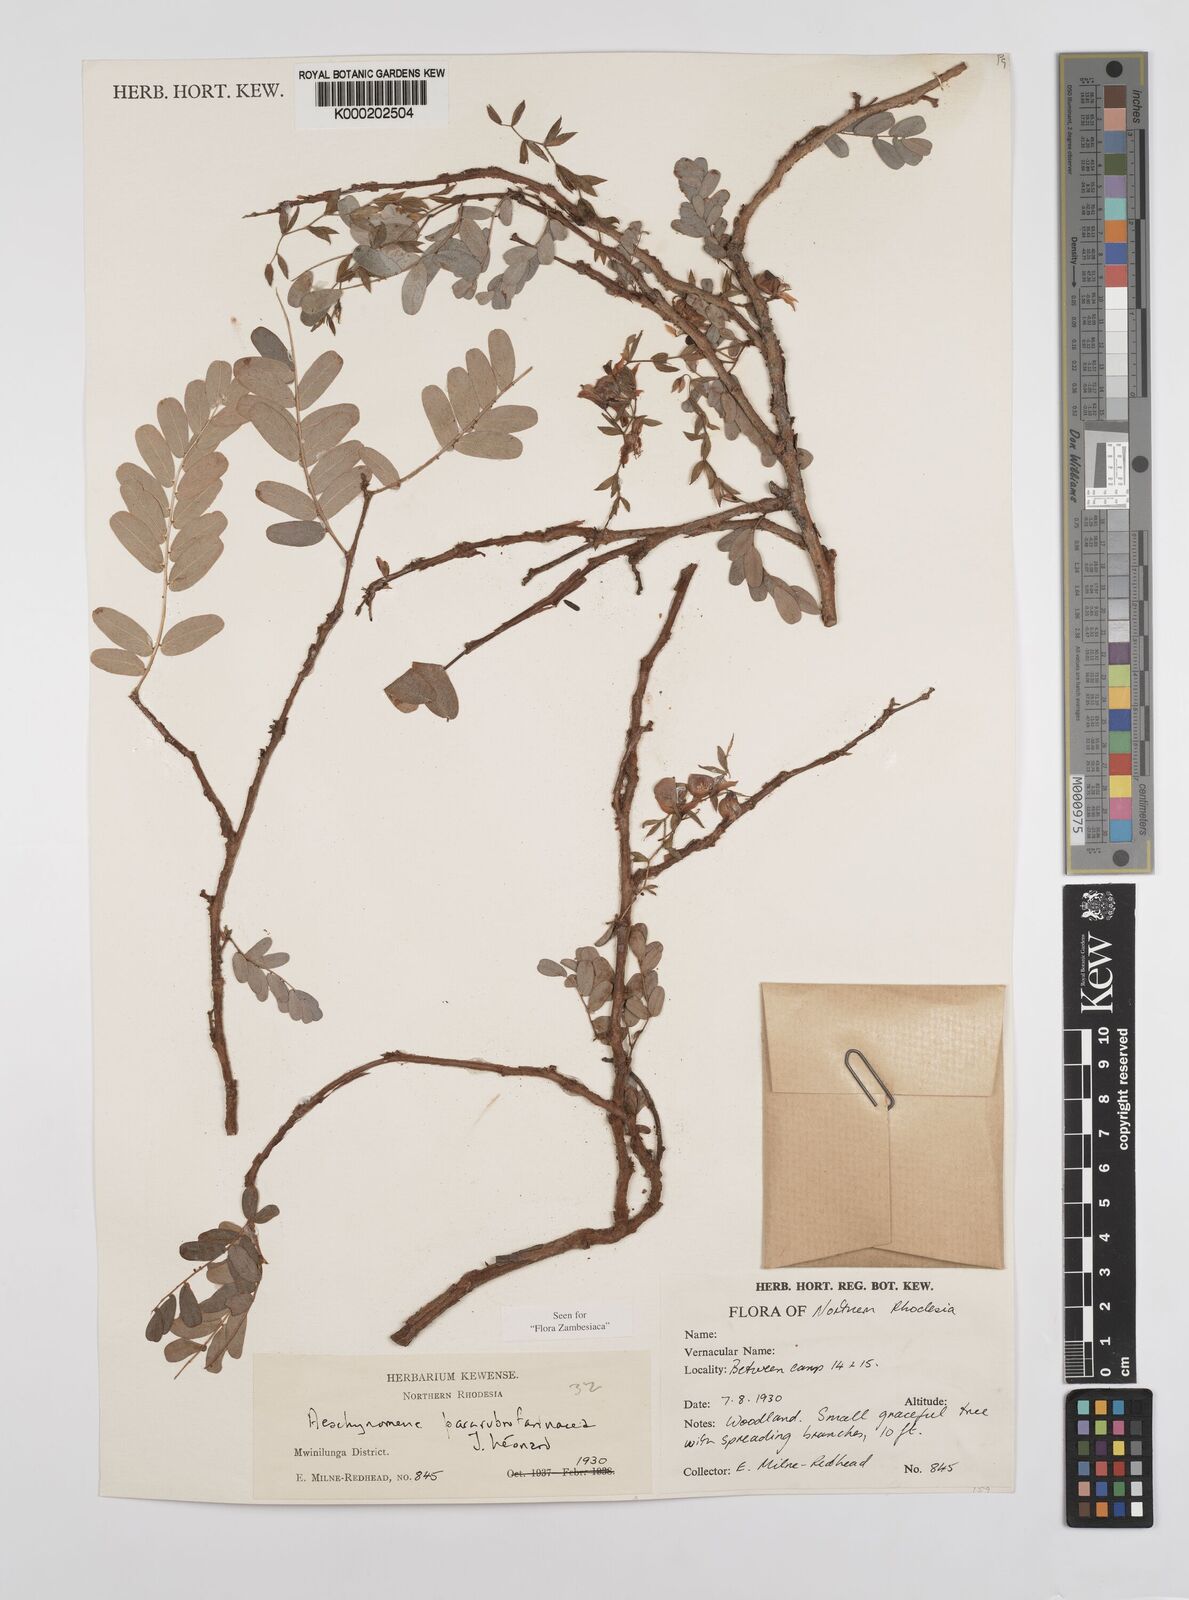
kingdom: Plantae
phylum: Tracheophyta
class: Magnoliopsida
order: Fabales
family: Fabaceae
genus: Aeschynomene
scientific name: Aeschynomene pararubrofarinacea
